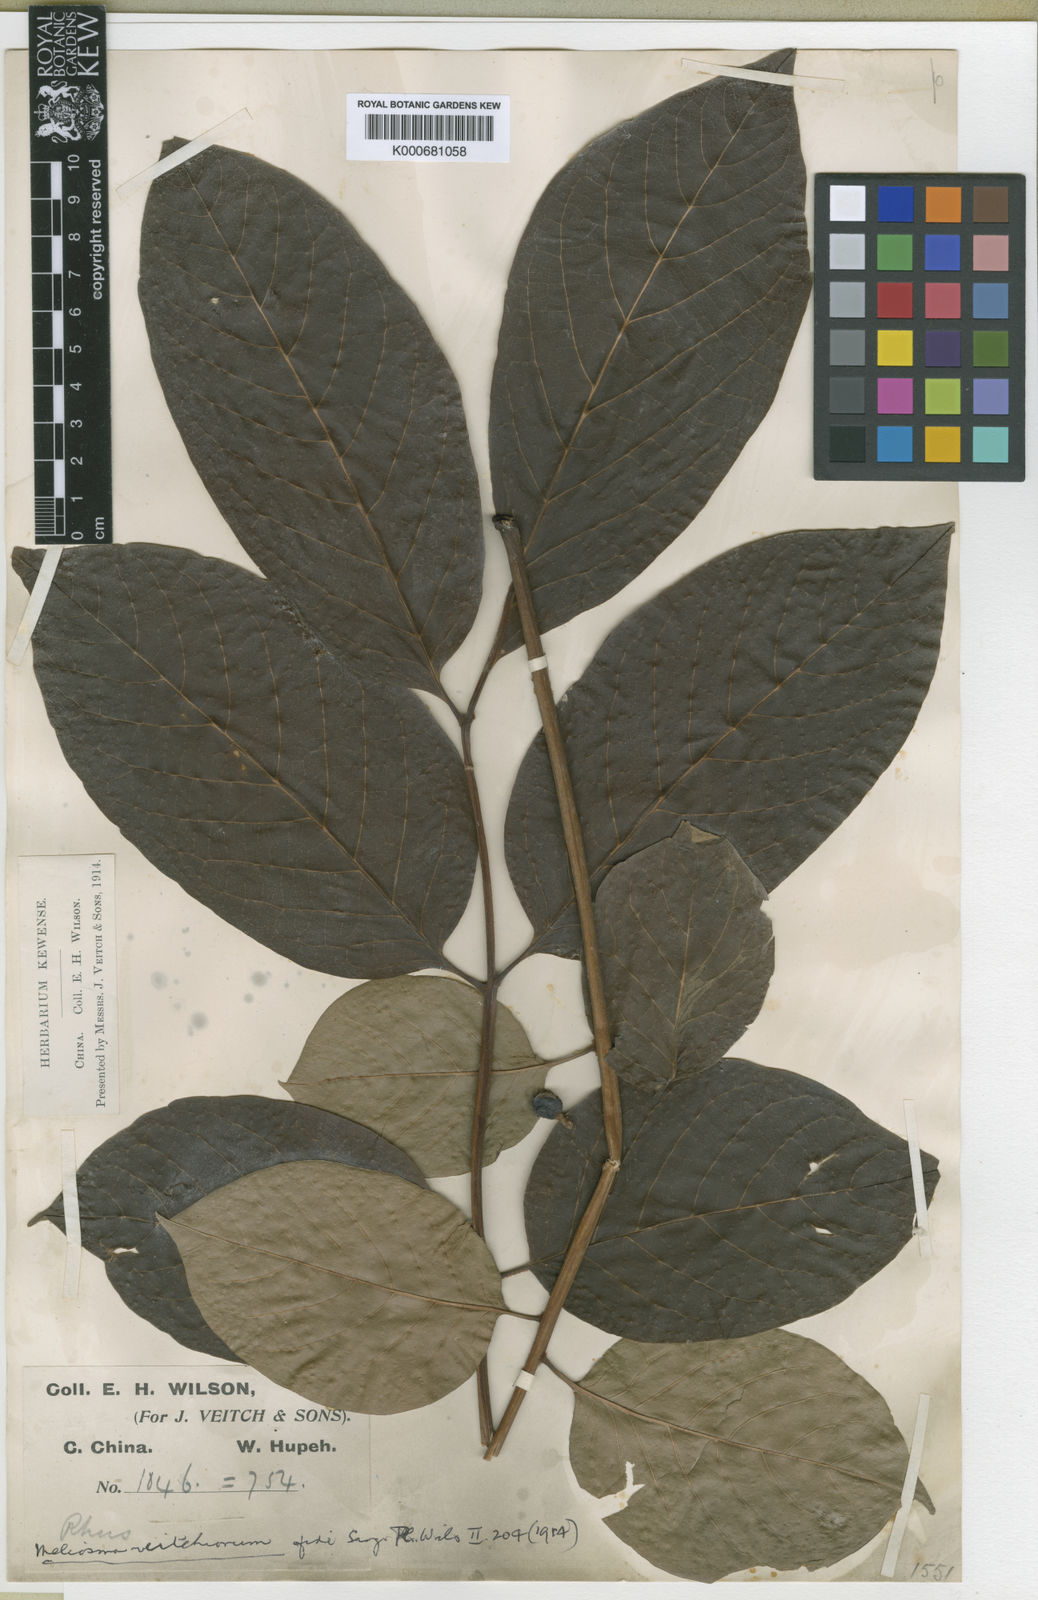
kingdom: Plantae
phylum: Tracheophyta
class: Magnoliopsida
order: Proteales
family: Sabiaceae
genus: Meliosma
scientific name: Meliosma veitchiorum
